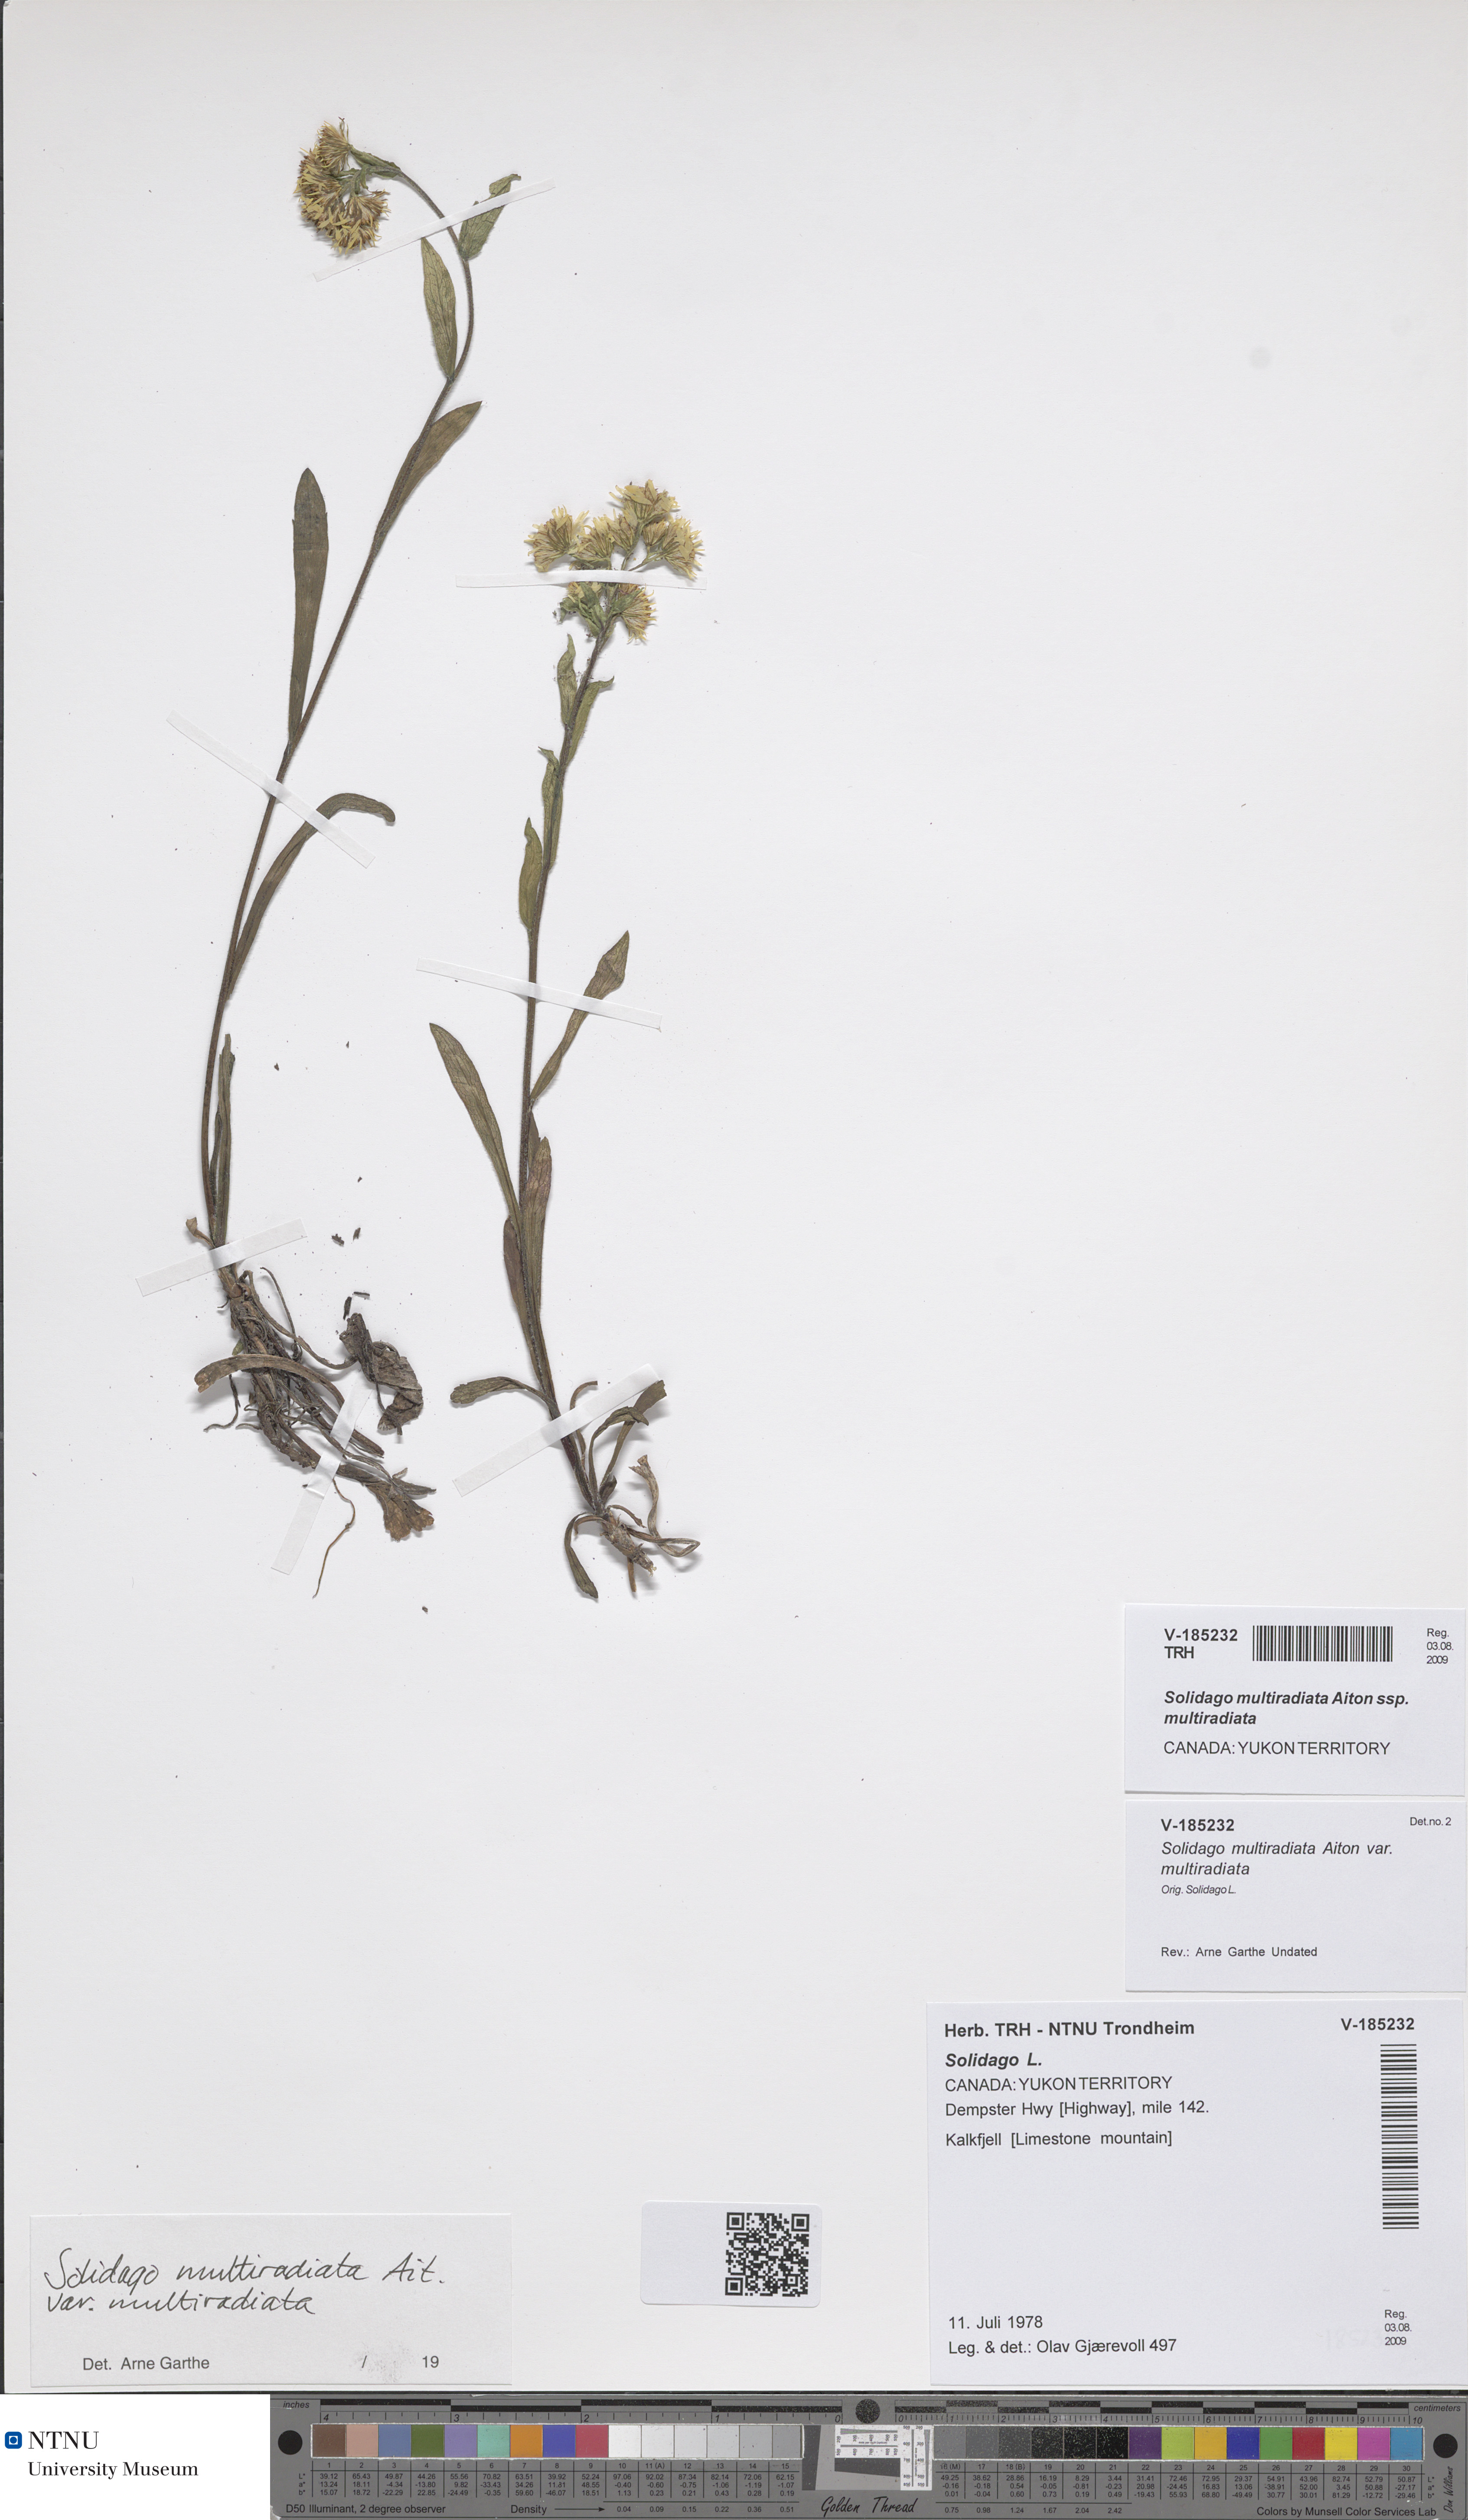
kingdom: Plantae
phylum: Tracheophyta
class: Magnoliopsida
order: Asterales
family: Asteraceae
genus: Solidago
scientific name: Solidago multiradiata
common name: Northern goldenrod
